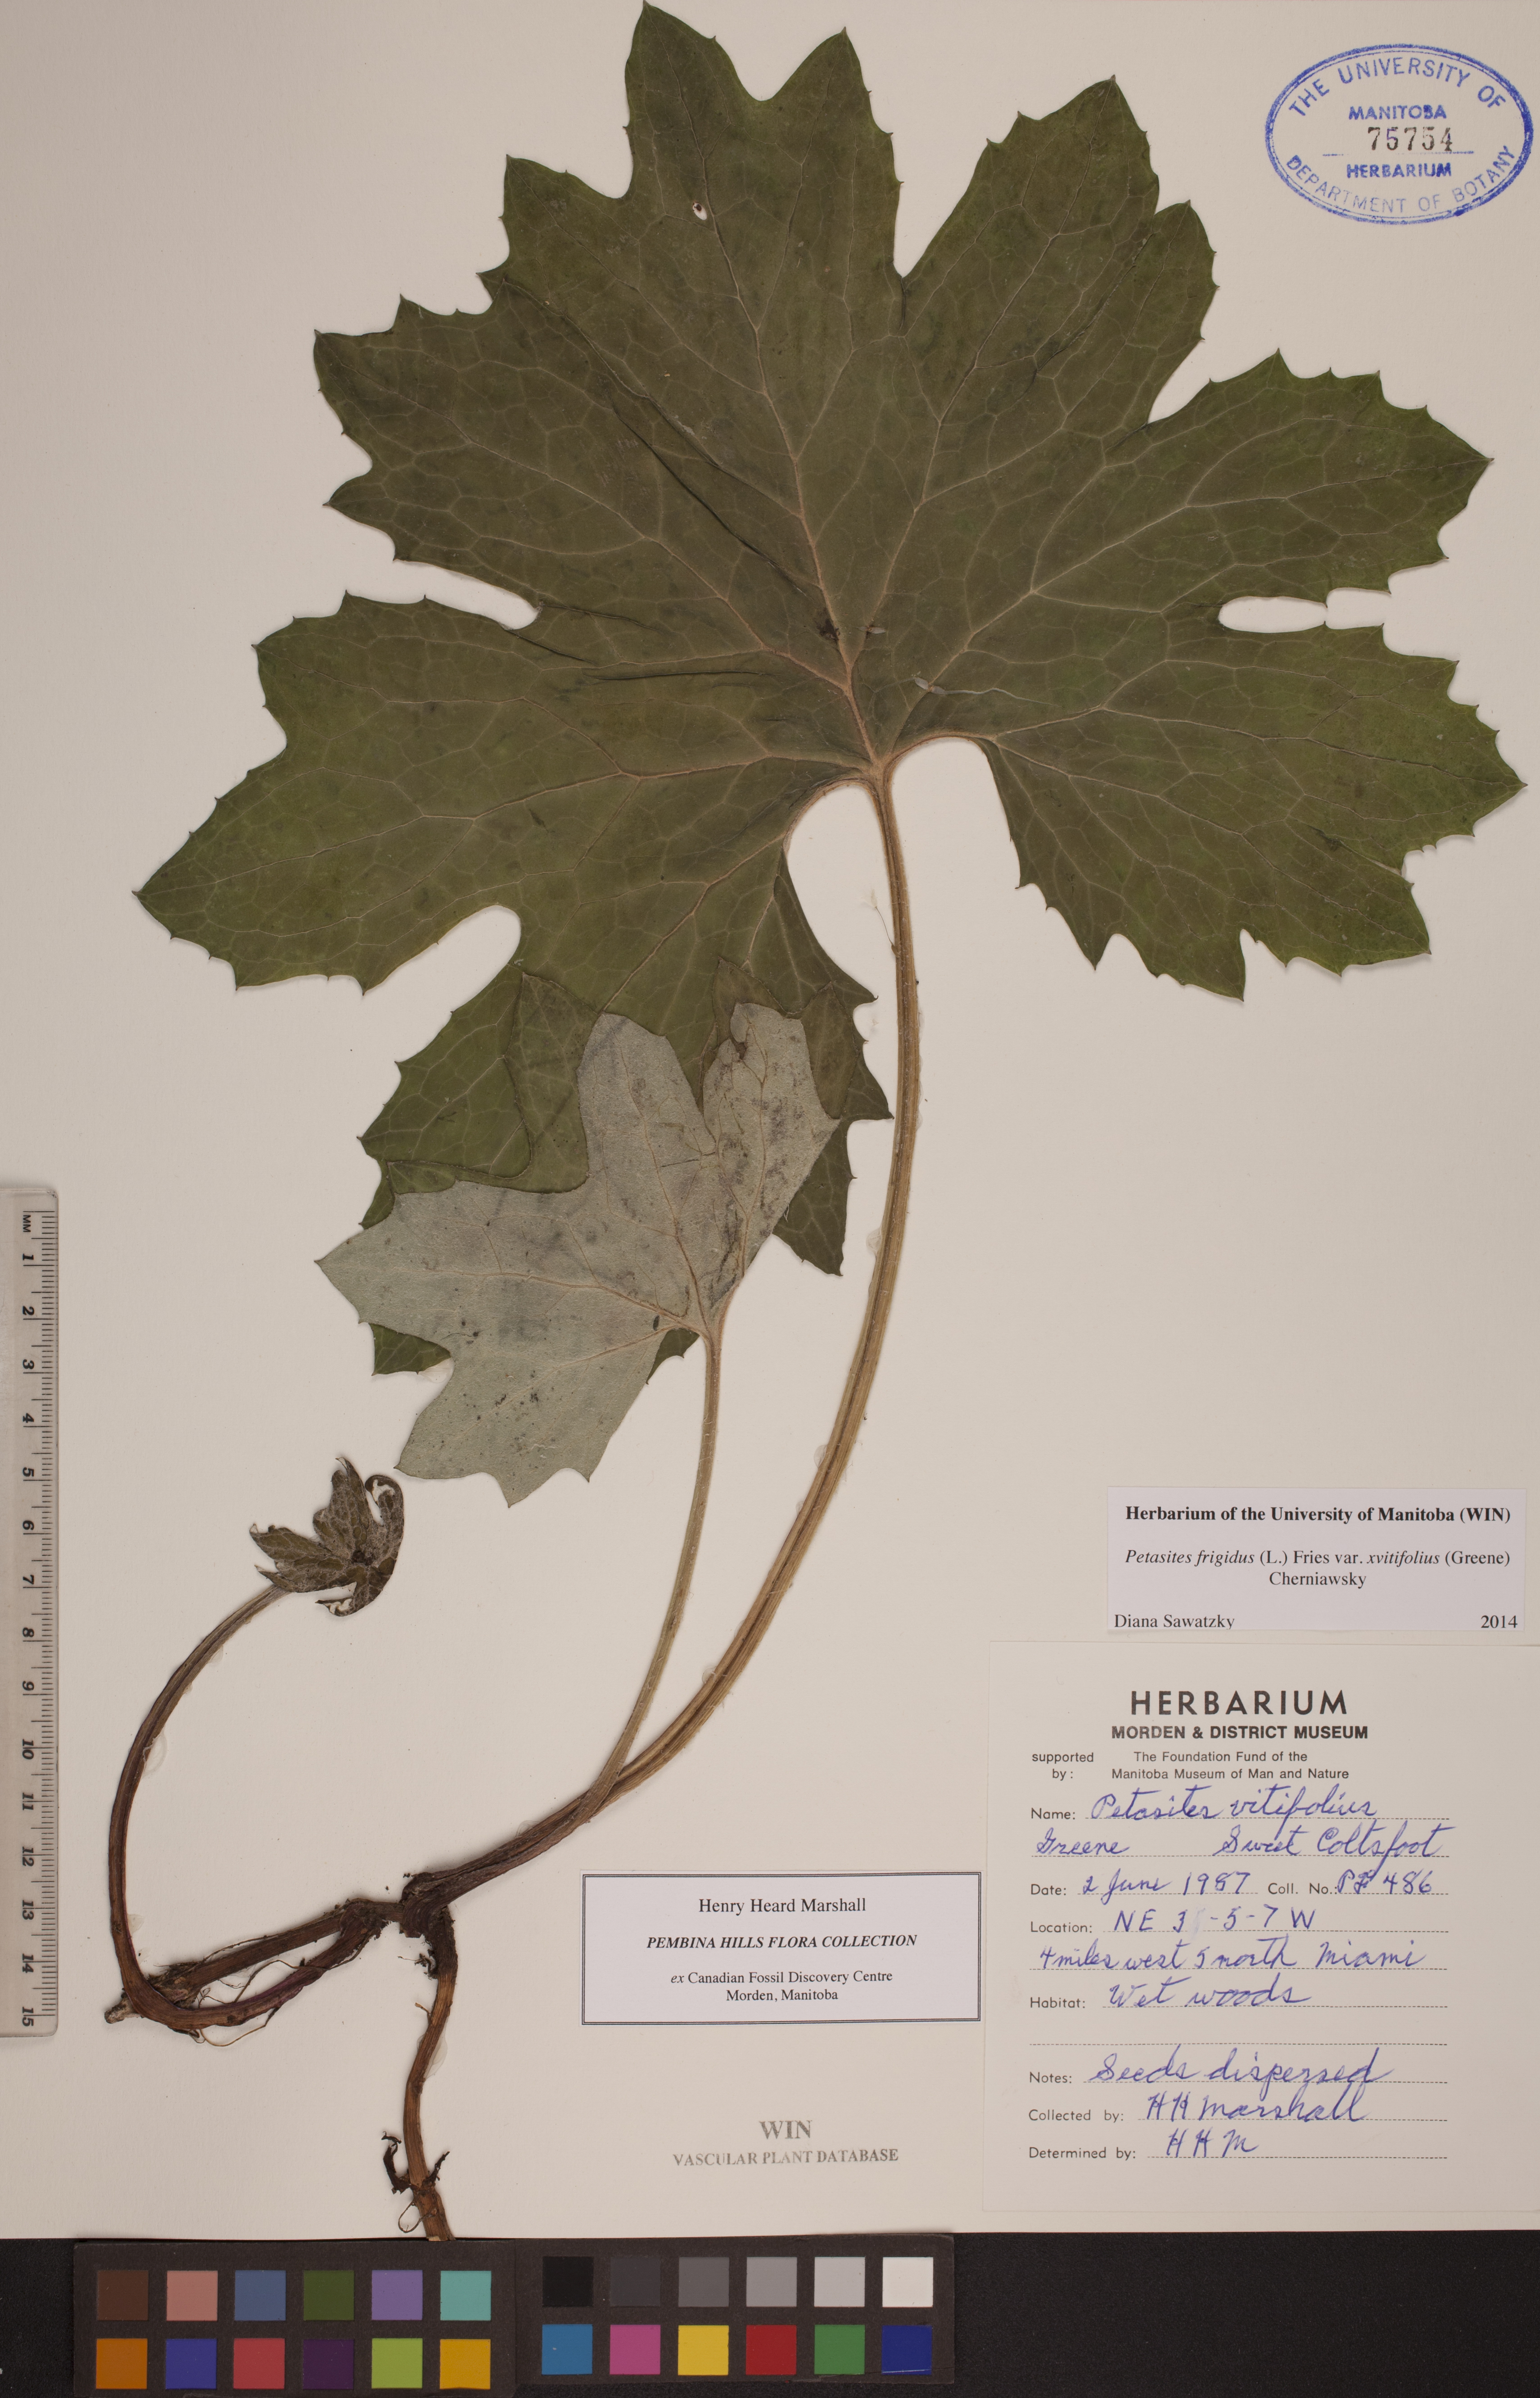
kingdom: Plantae
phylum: Tracheophyta
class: Magnoliopsida
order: Asterales
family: Asteraceae
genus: Petasites
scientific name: Petasites frigidus
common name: Arctic butterbur
